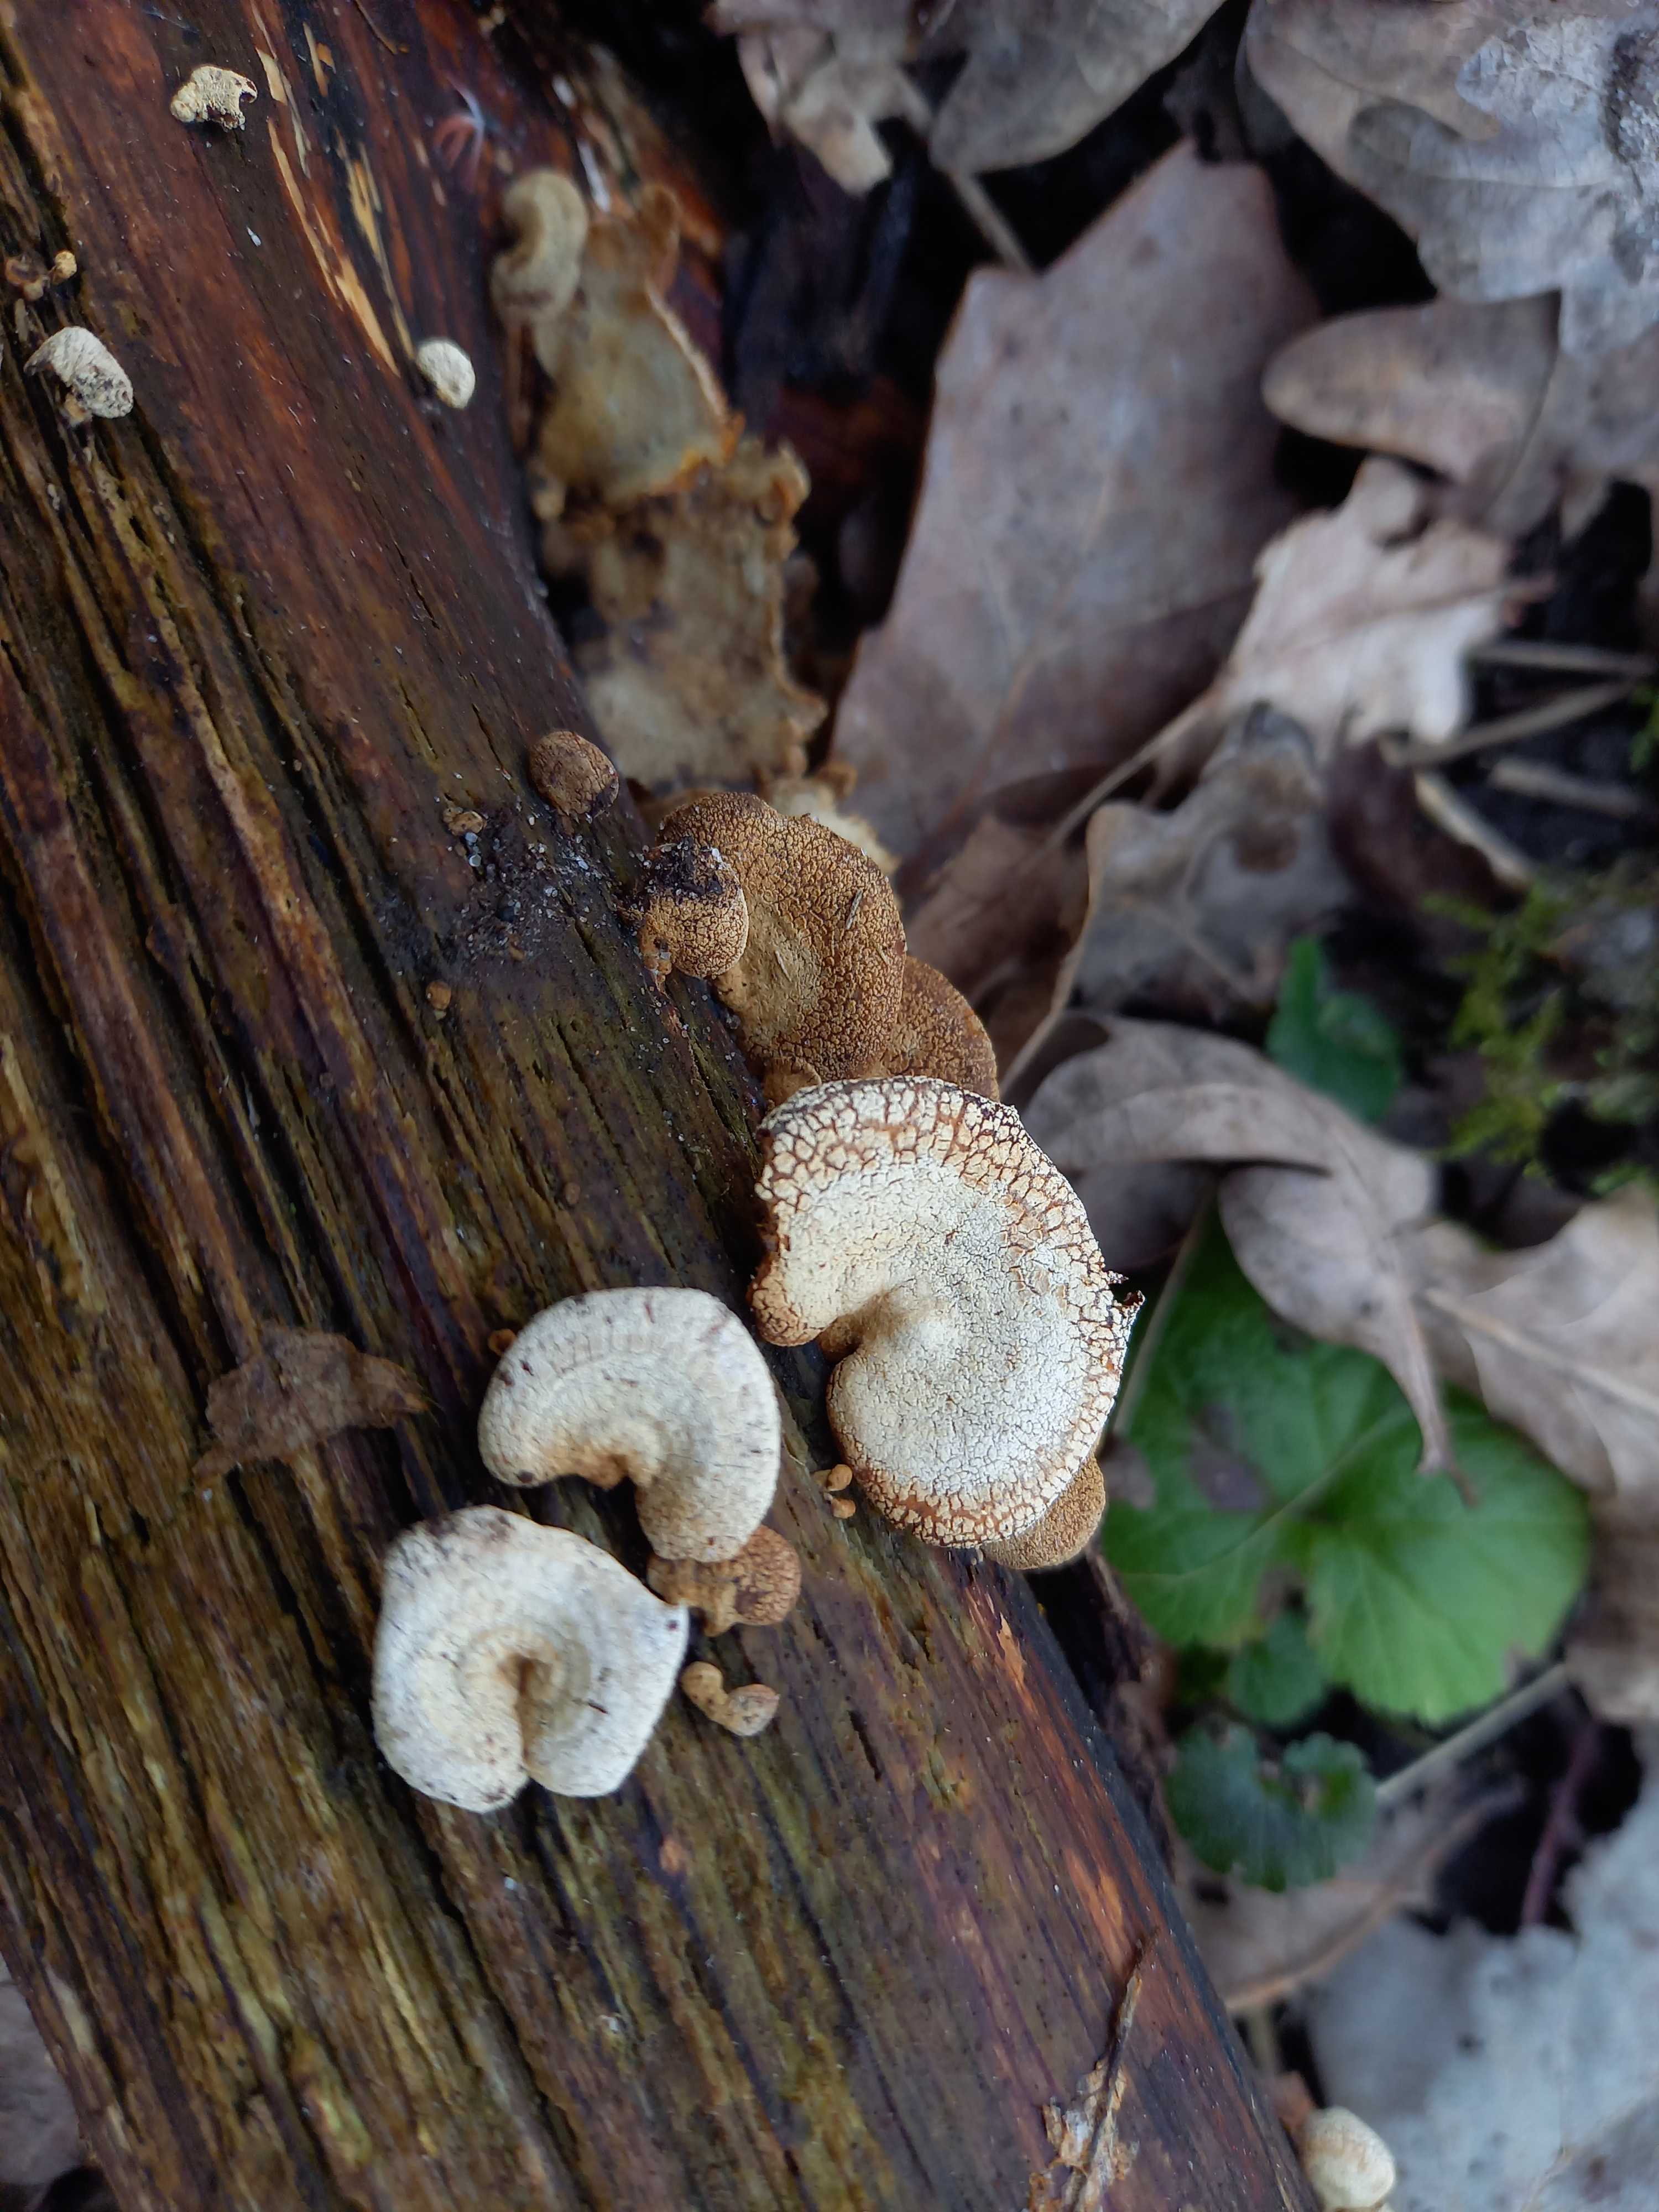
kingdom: Fungi
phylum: Basidiomycota
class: Agaricomycetes
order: Agaricales
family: Mycenaceae
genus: Panellus
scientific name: Panellus stipticus
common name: kliddet epaulethat
